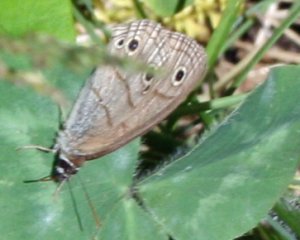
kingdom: Animalia
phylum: Arthropoda
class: Insecta
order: Lepidoptera
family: Nymphalidae
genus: Euptychia
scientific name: Euptychia cymela
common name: Little Wood Satyr
